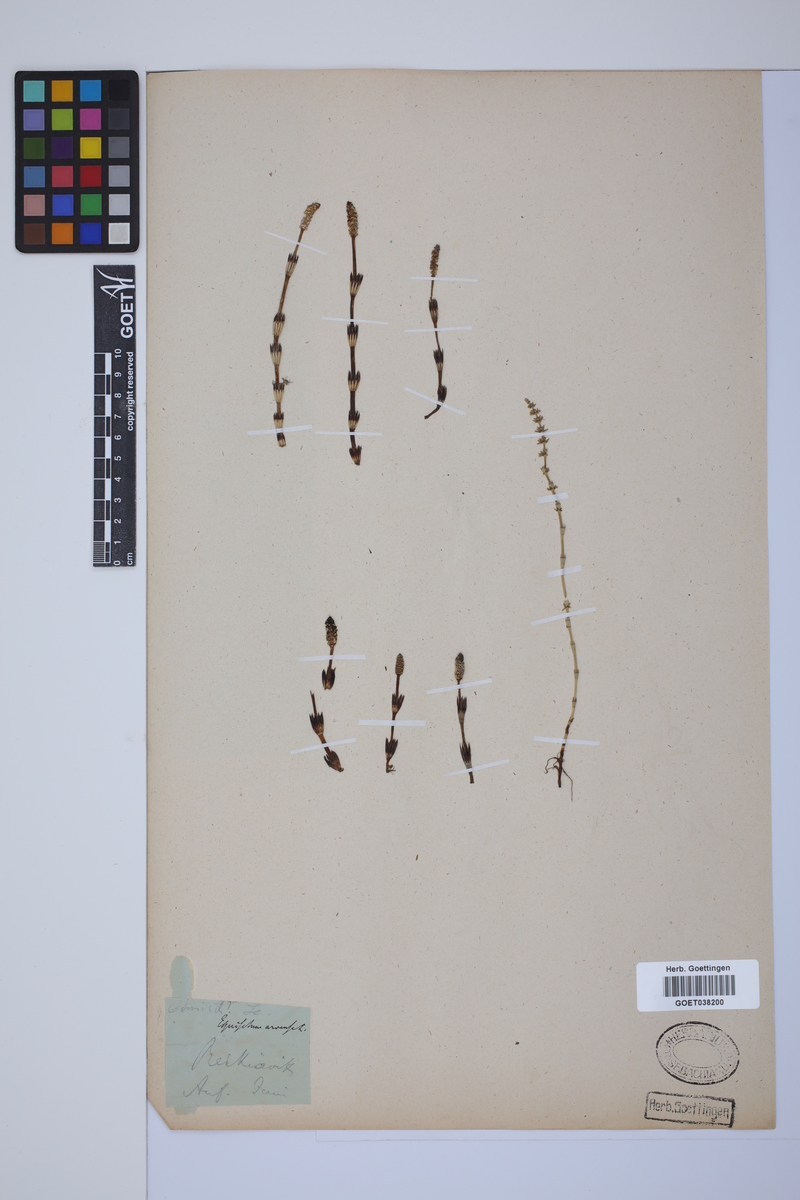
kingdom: Plantae
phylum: Tracheophyta
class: Polypodiopsida
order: Equisetales
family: Equisetaceae
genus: Equisetum
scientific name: Equisetum arvense
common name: Field horsetail
